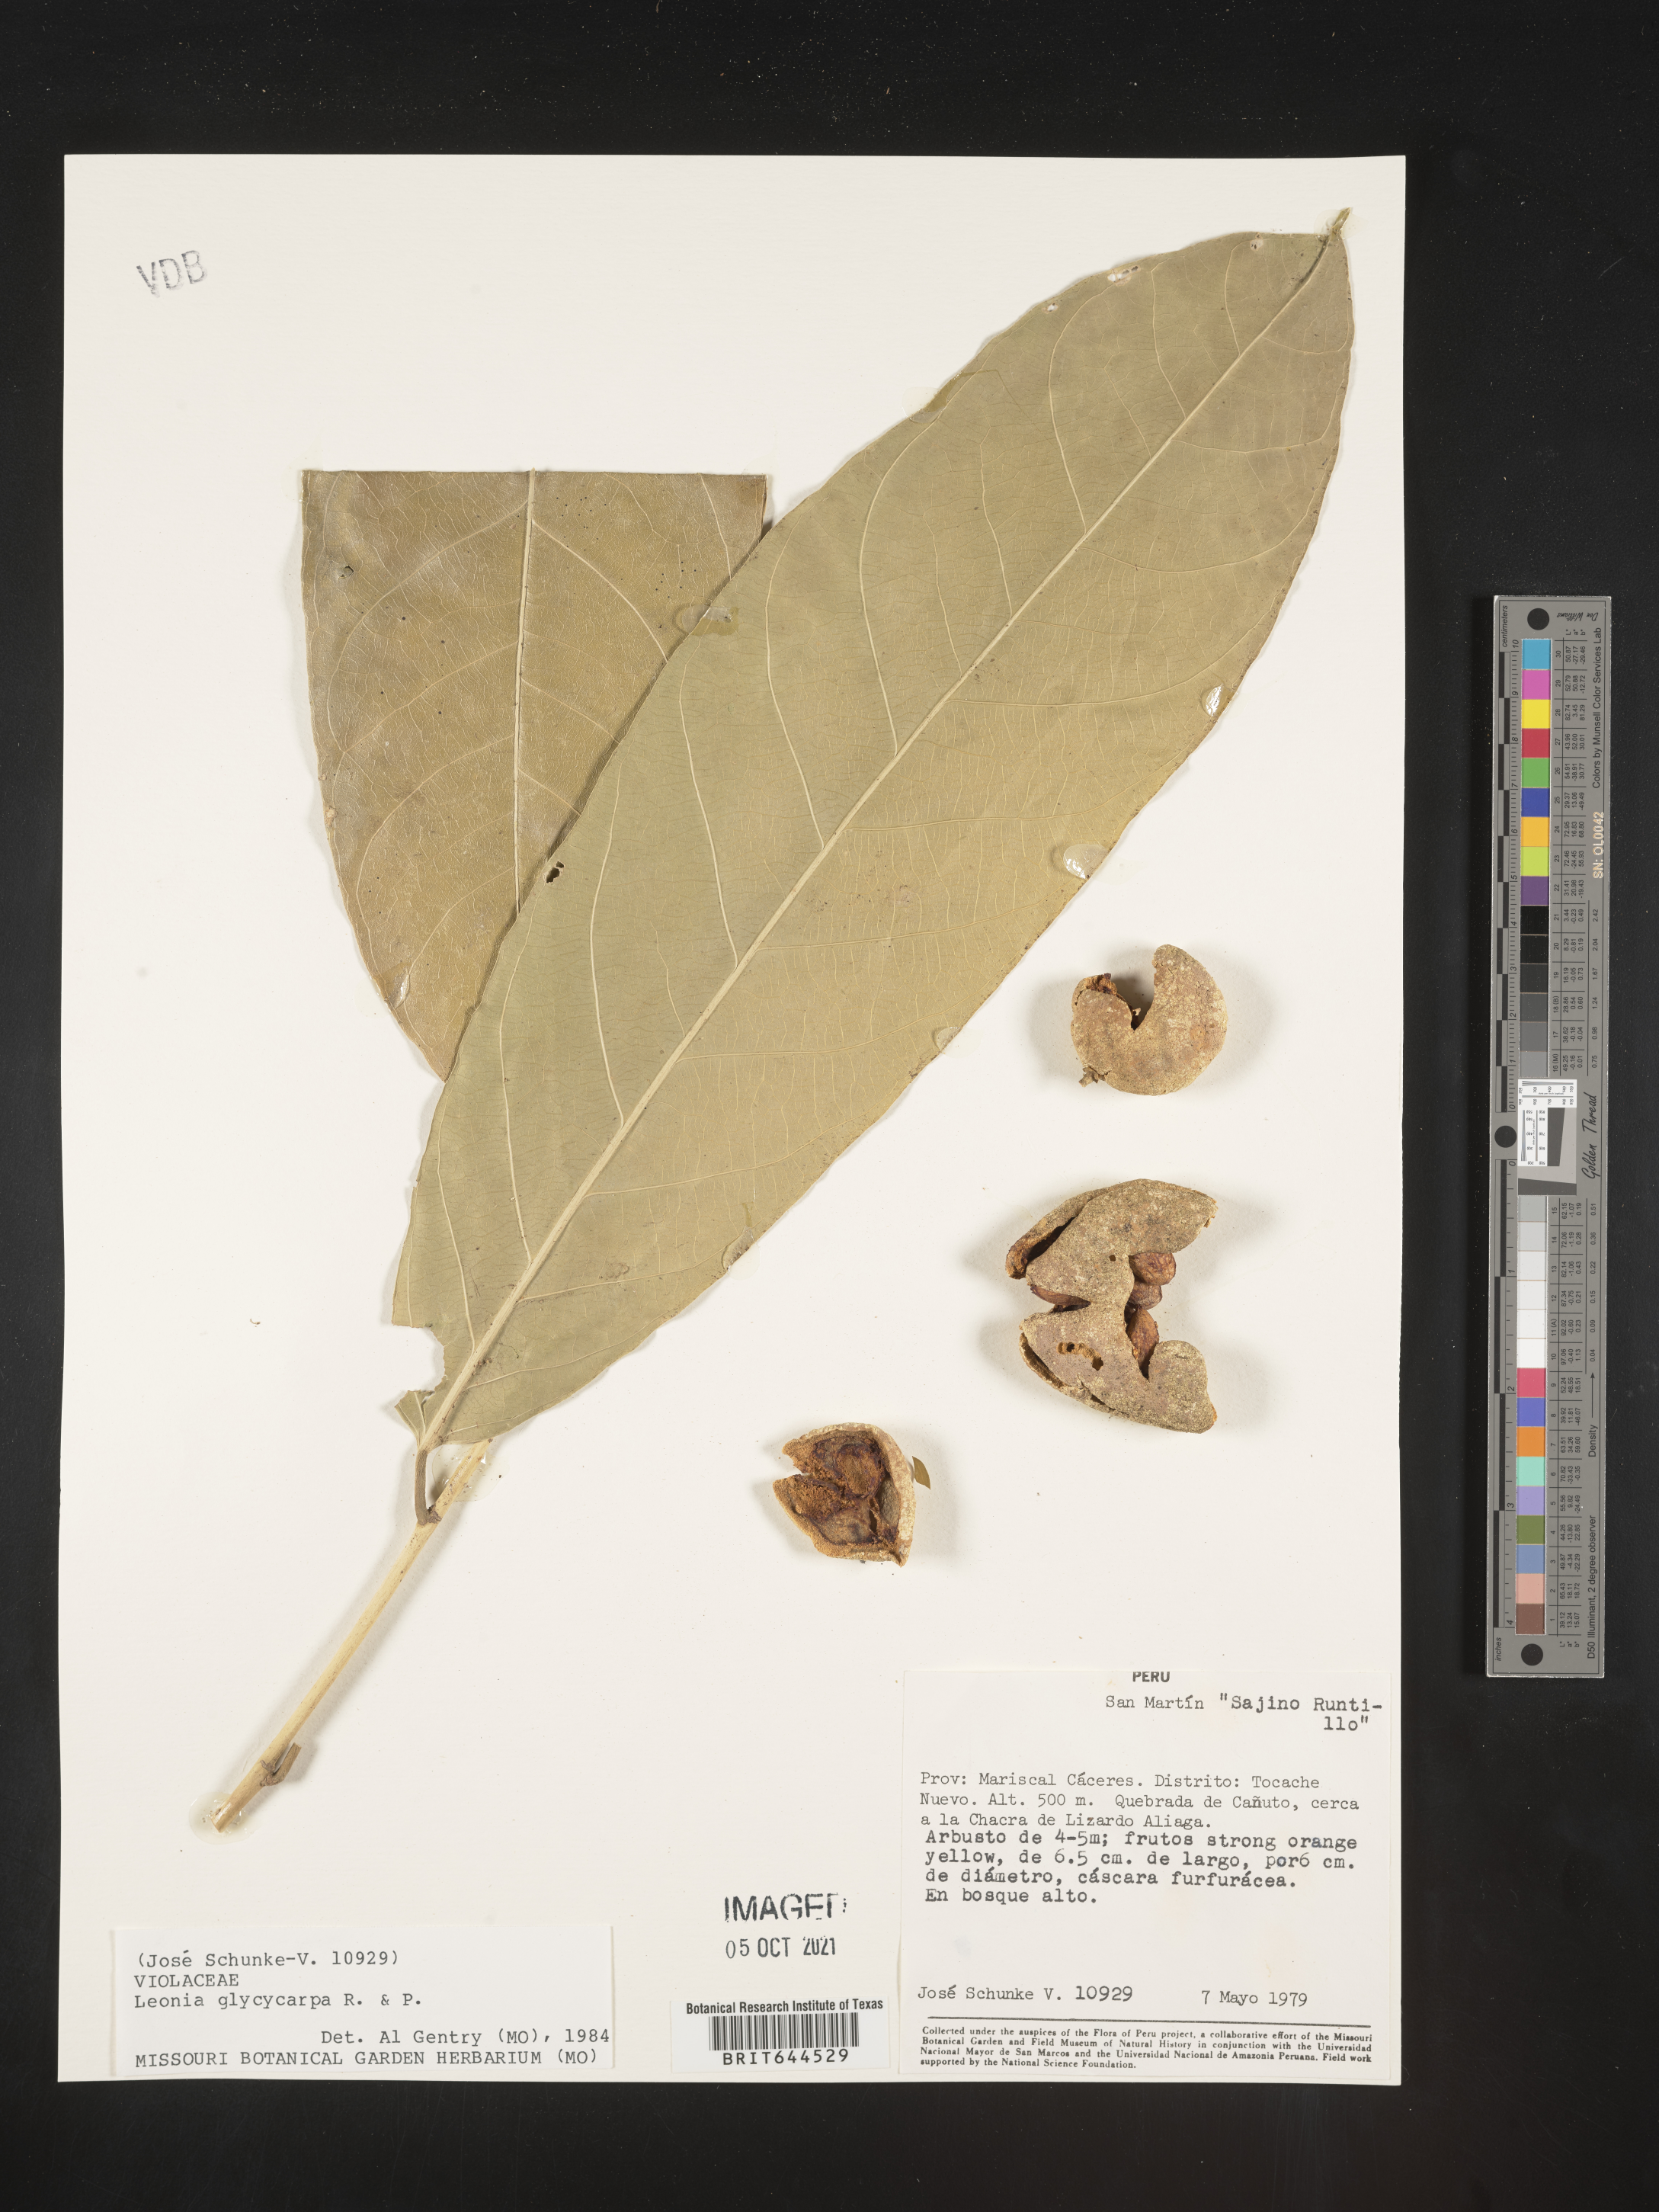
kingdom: Plantae
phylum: Tracheophyta
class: Magnoliopsida
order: Malpighiales
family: Violaceae
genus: Leonia
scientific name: Leonia
